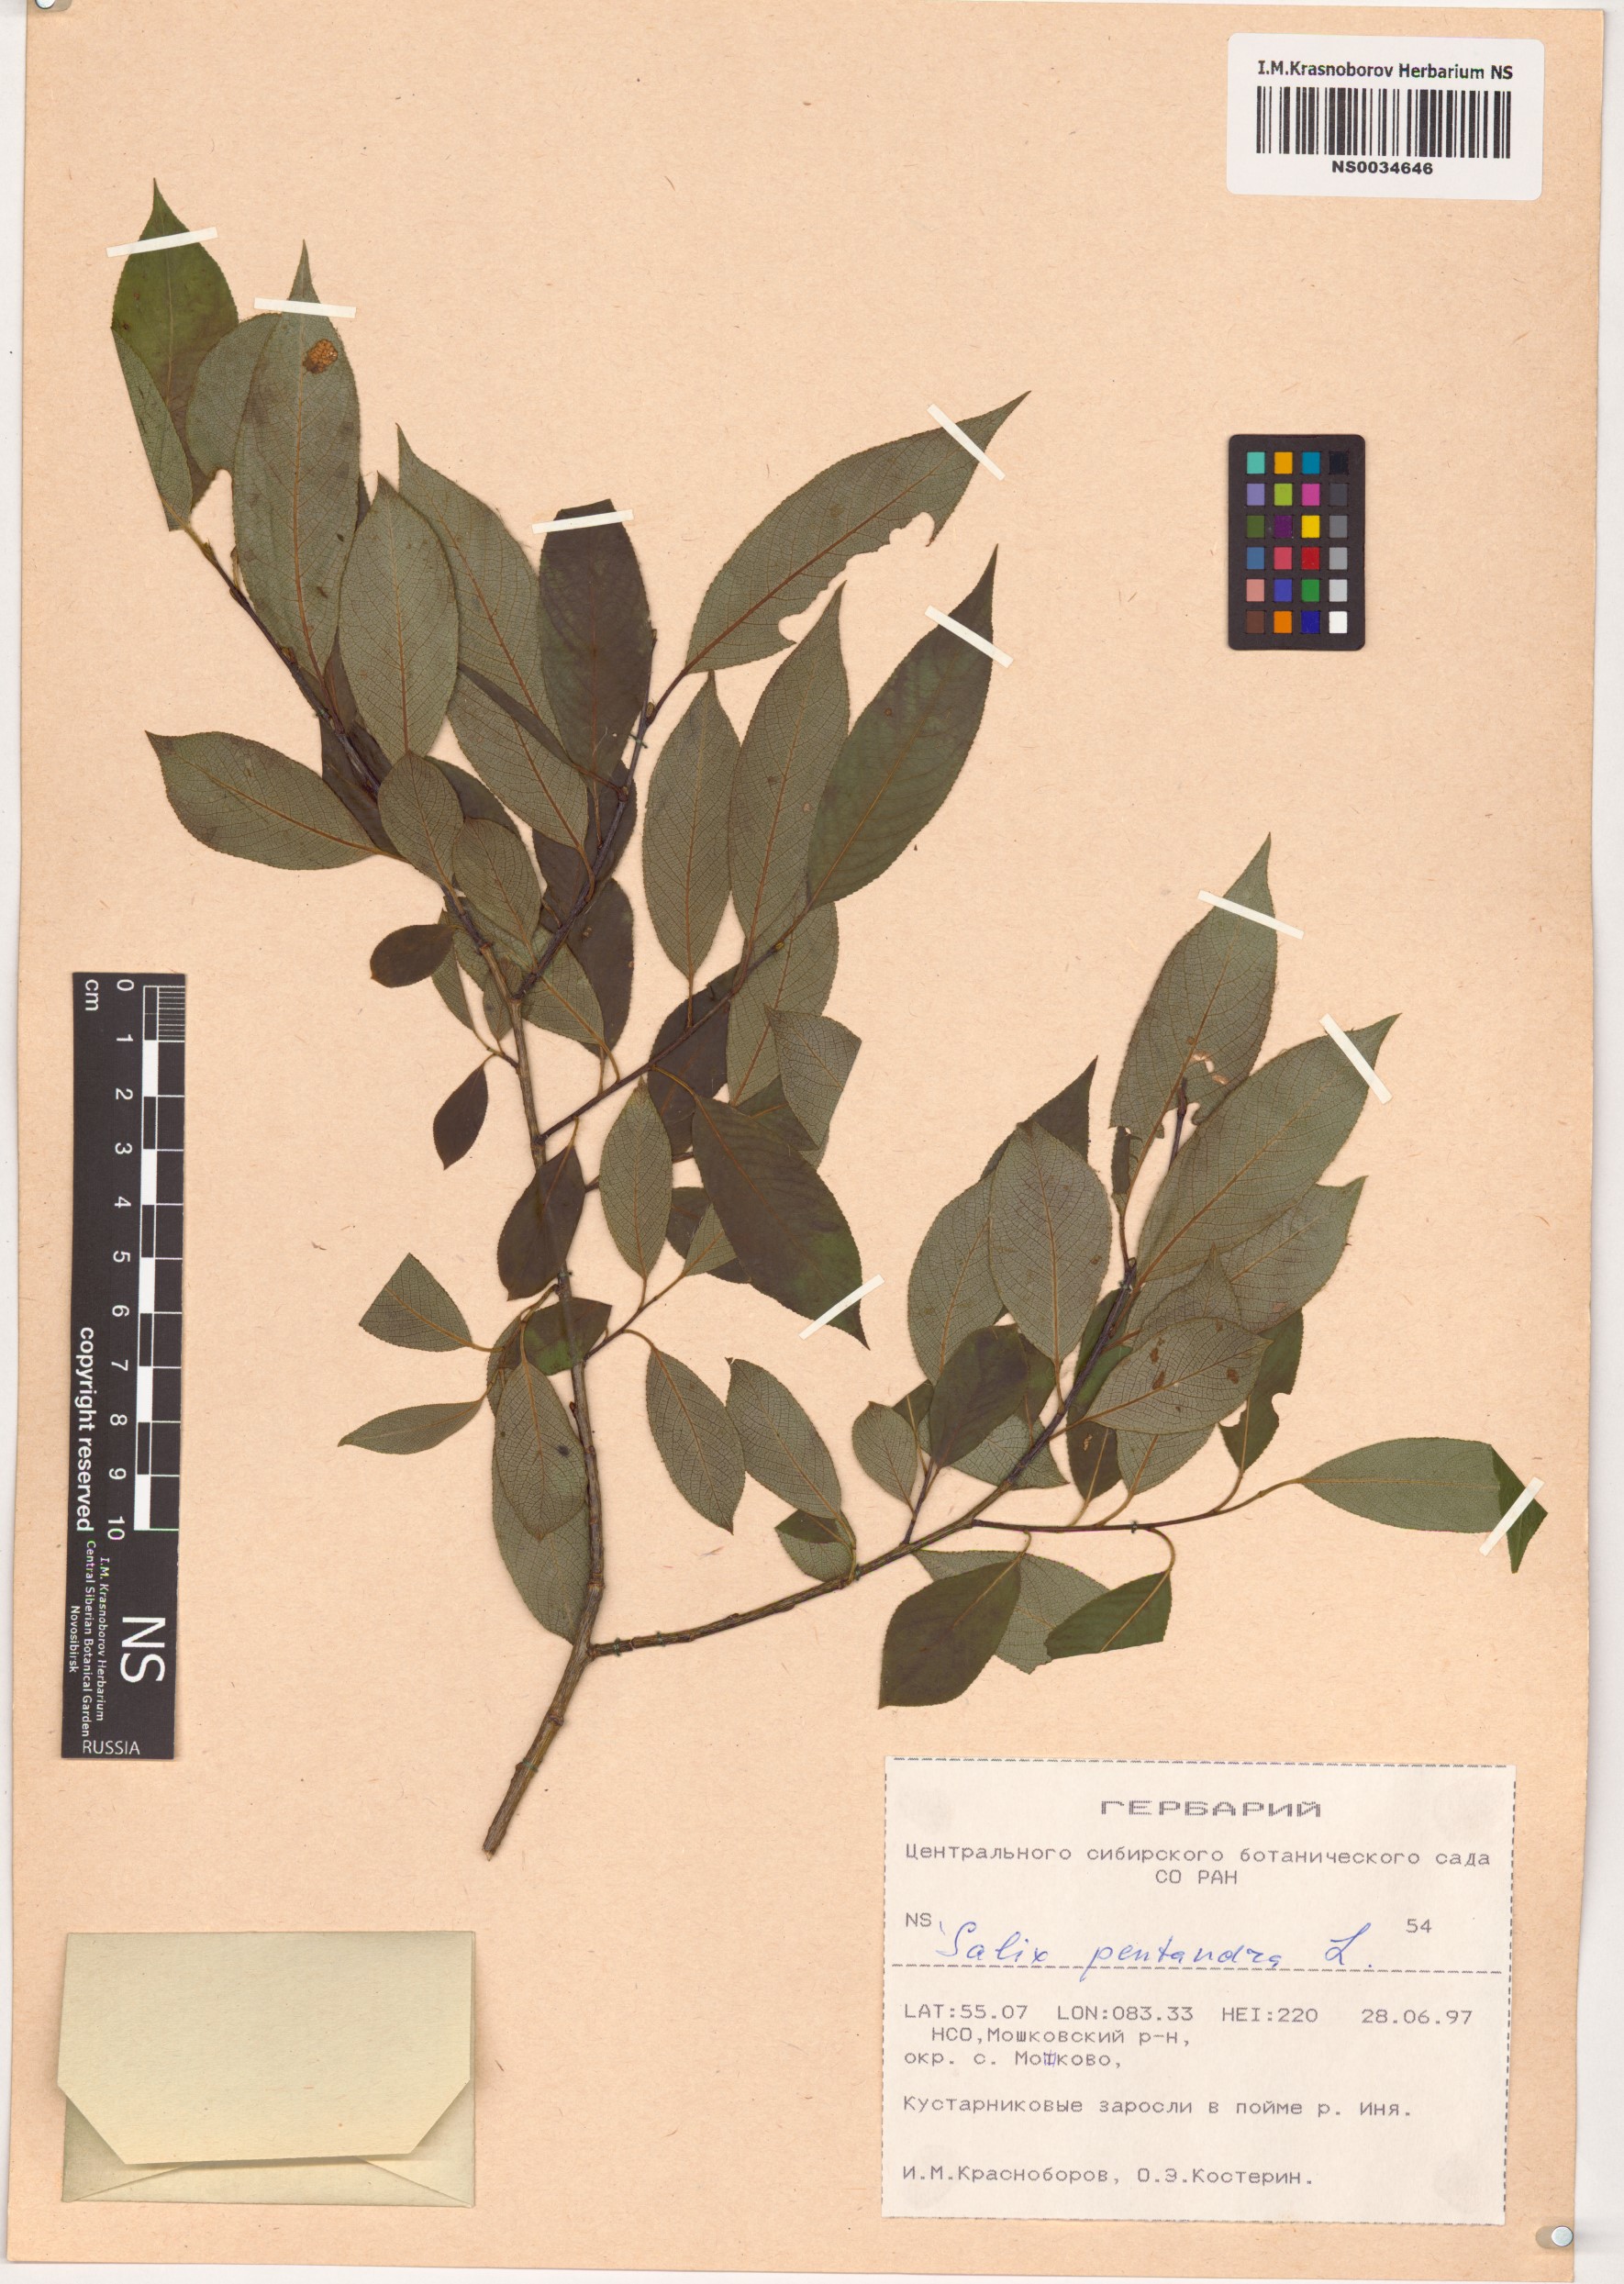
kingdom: Plantae
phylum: Tracheophyta
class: Magnoliopsida
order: Malpighiales
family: Salicaceae
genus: Salix
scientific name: Salix pentandra
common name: Bay willow
